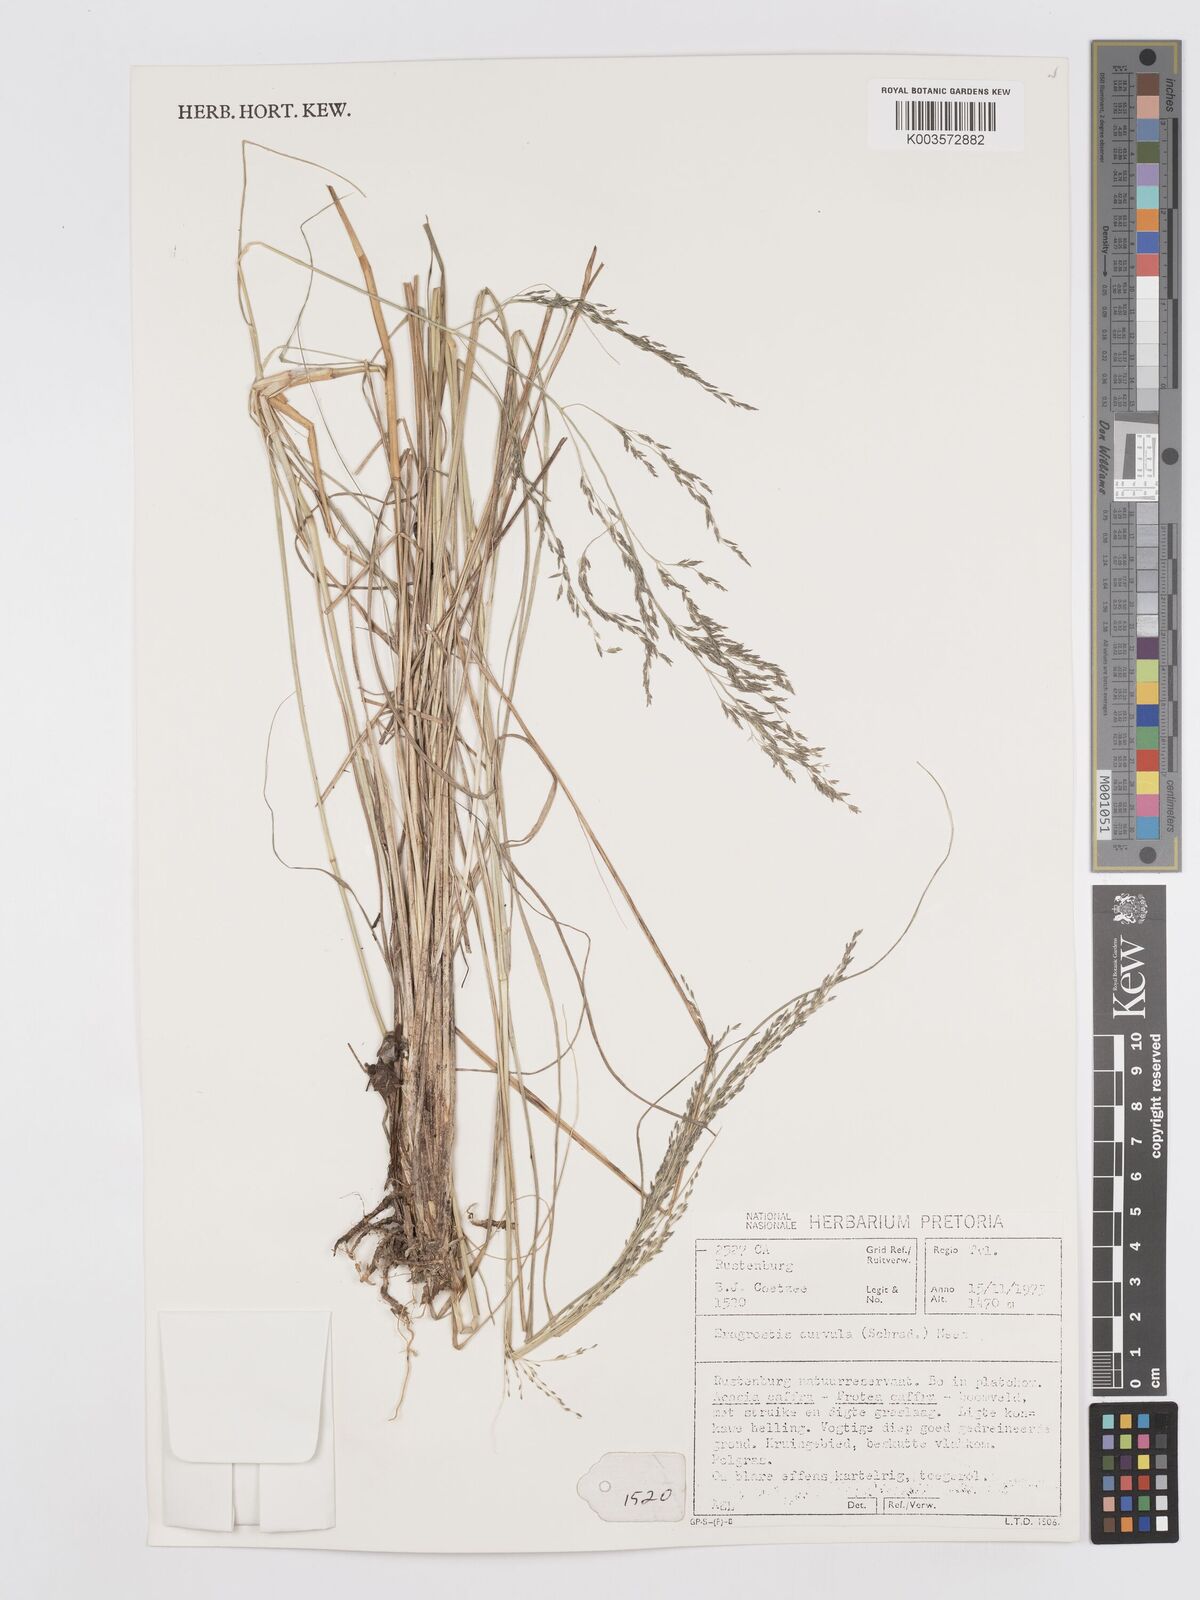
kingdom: Plantae
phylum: Tracheophyta
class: Liliopsida
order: Poales
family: Poaceae
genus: Eragrostis
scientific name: Eragrostis curvula
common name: African love-grass
